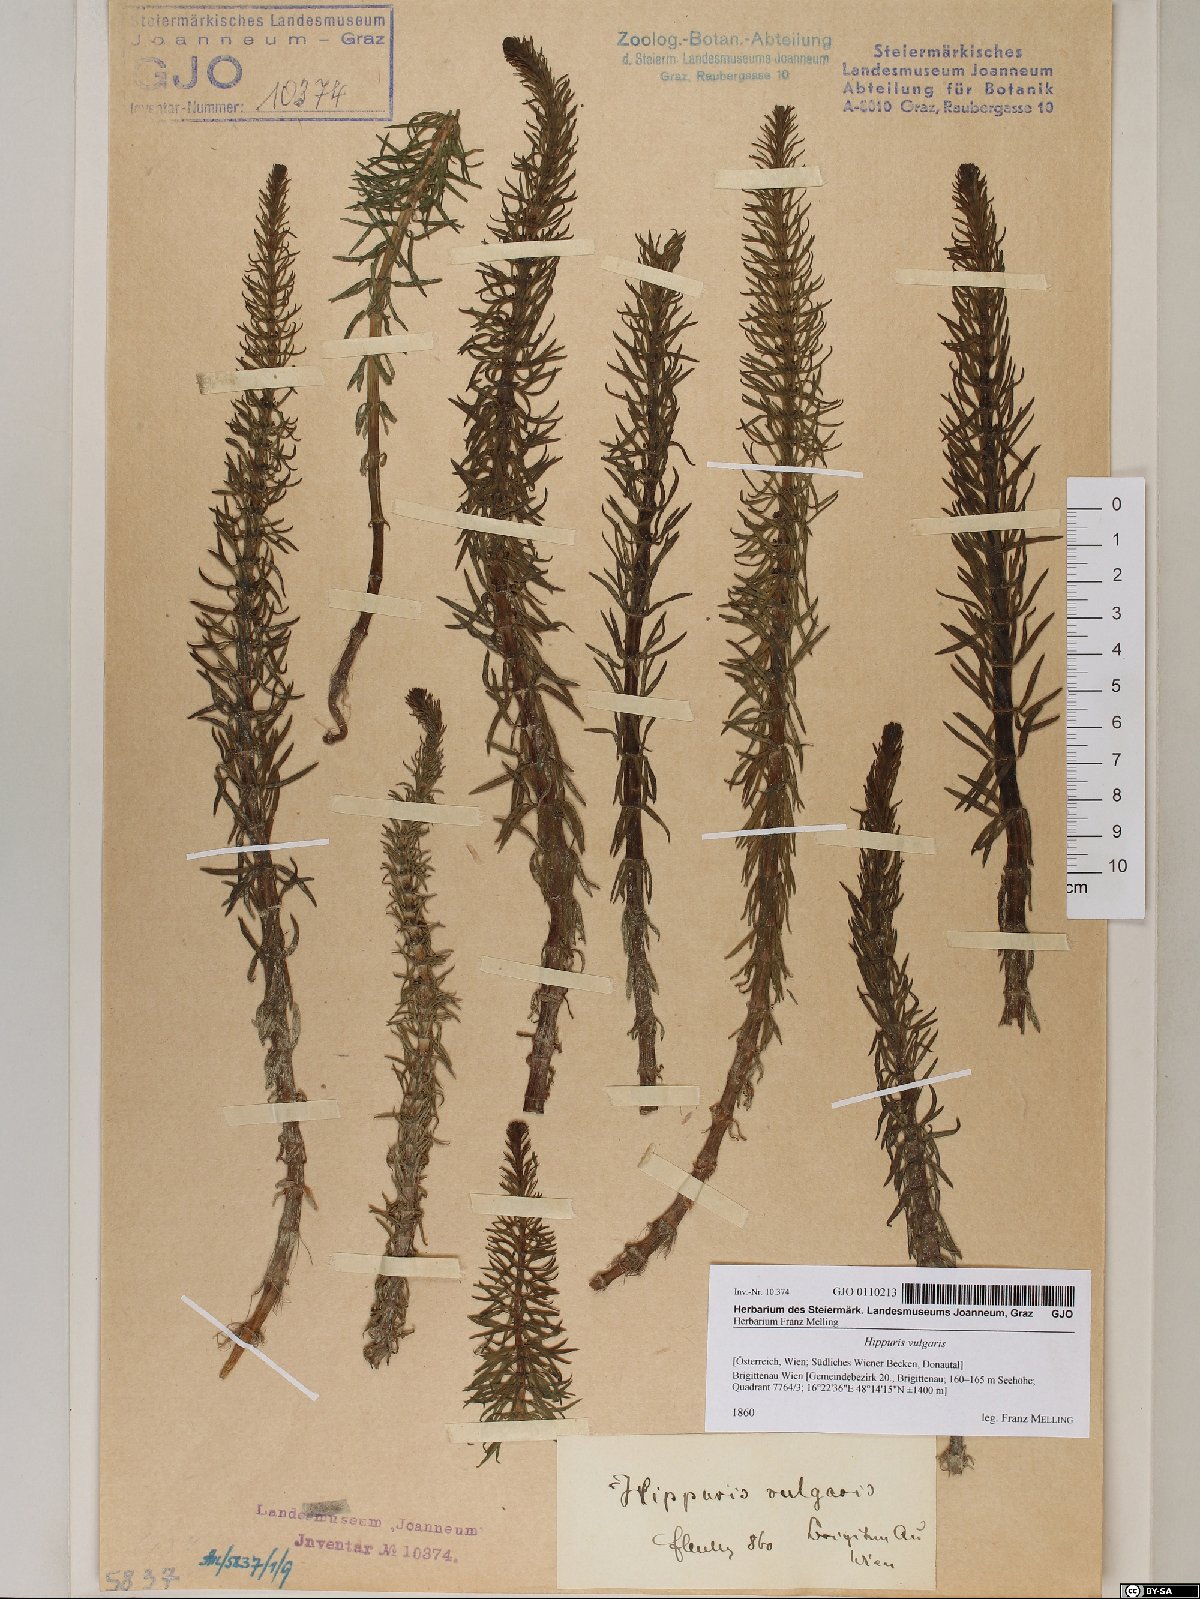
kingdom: Plantae
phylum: Tracheophyta
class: Magnoliopsida
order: Lamiales
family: Plantaginaceae
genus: Hippuris
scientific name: Hippuris vulgaris
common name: Mare's-tail
